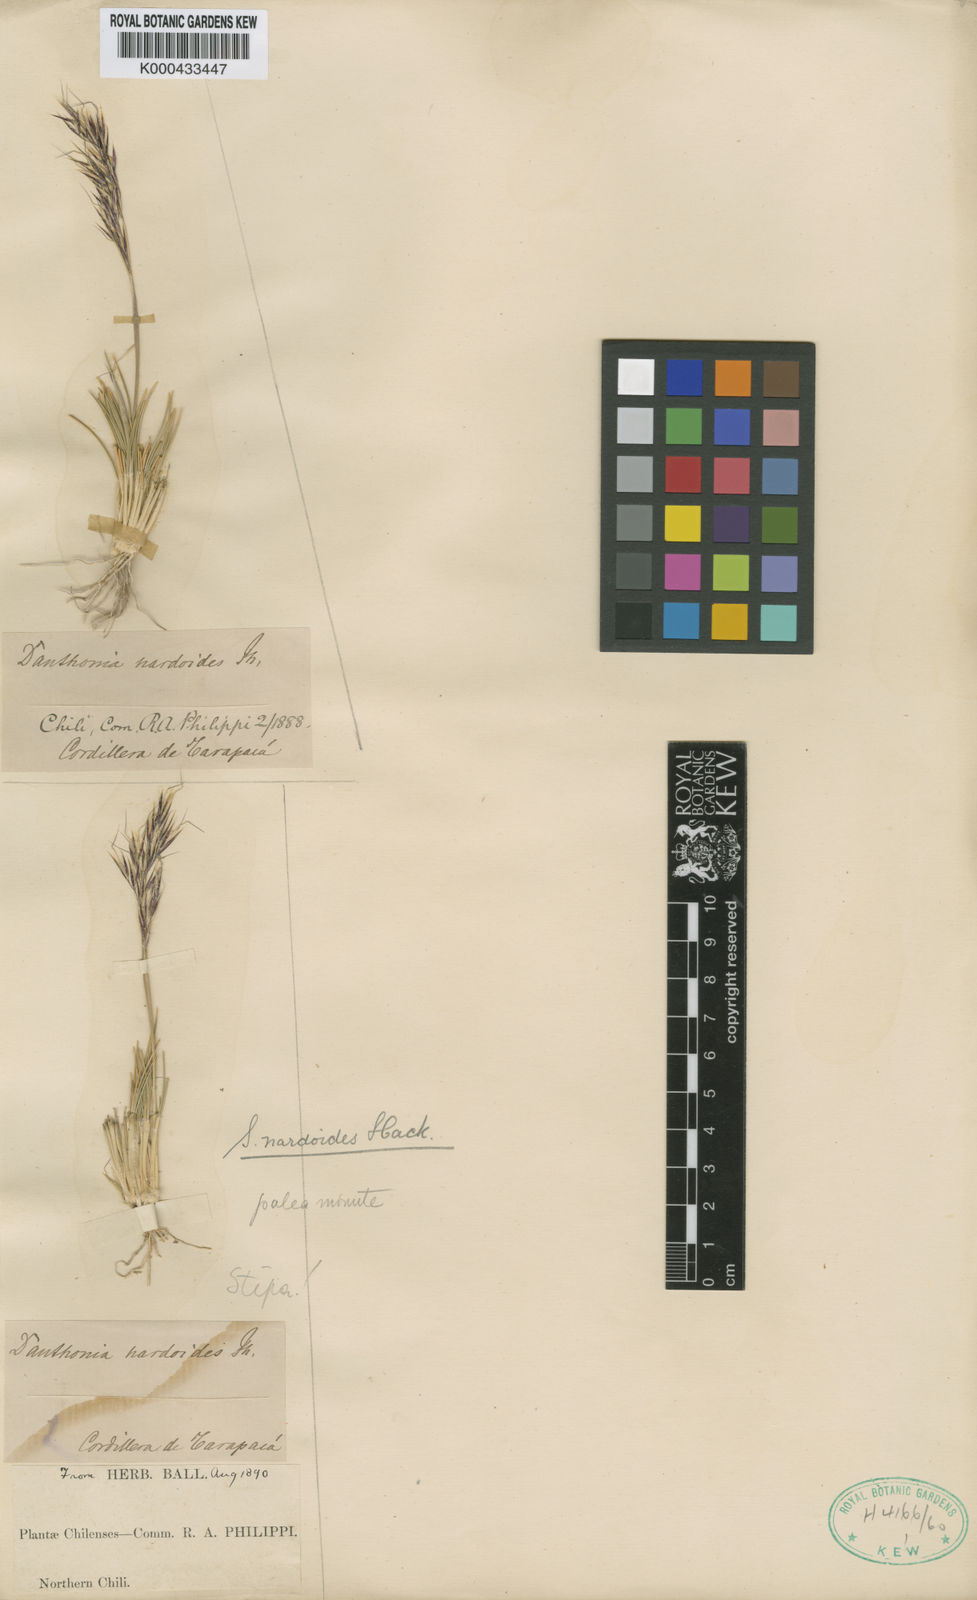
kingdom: Plantae
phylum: Tracheophyta
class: Liliopsida
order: Poales
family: Poaceae
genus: Nassella
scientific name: Nassella nardoides
